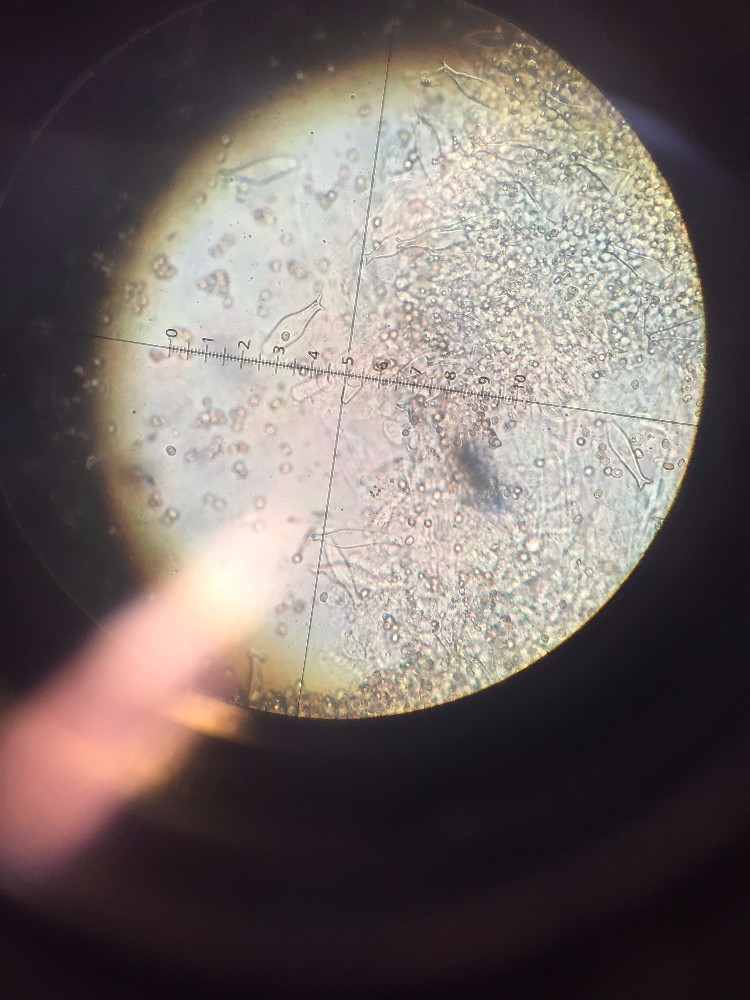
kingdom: Fungi
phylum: Basidiomycota
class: Agaricomycetes
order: Agaricales
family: Pluteaceae
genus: Pluteus
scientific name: Pluteus cervinus
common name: sodfarvet skærmhat
